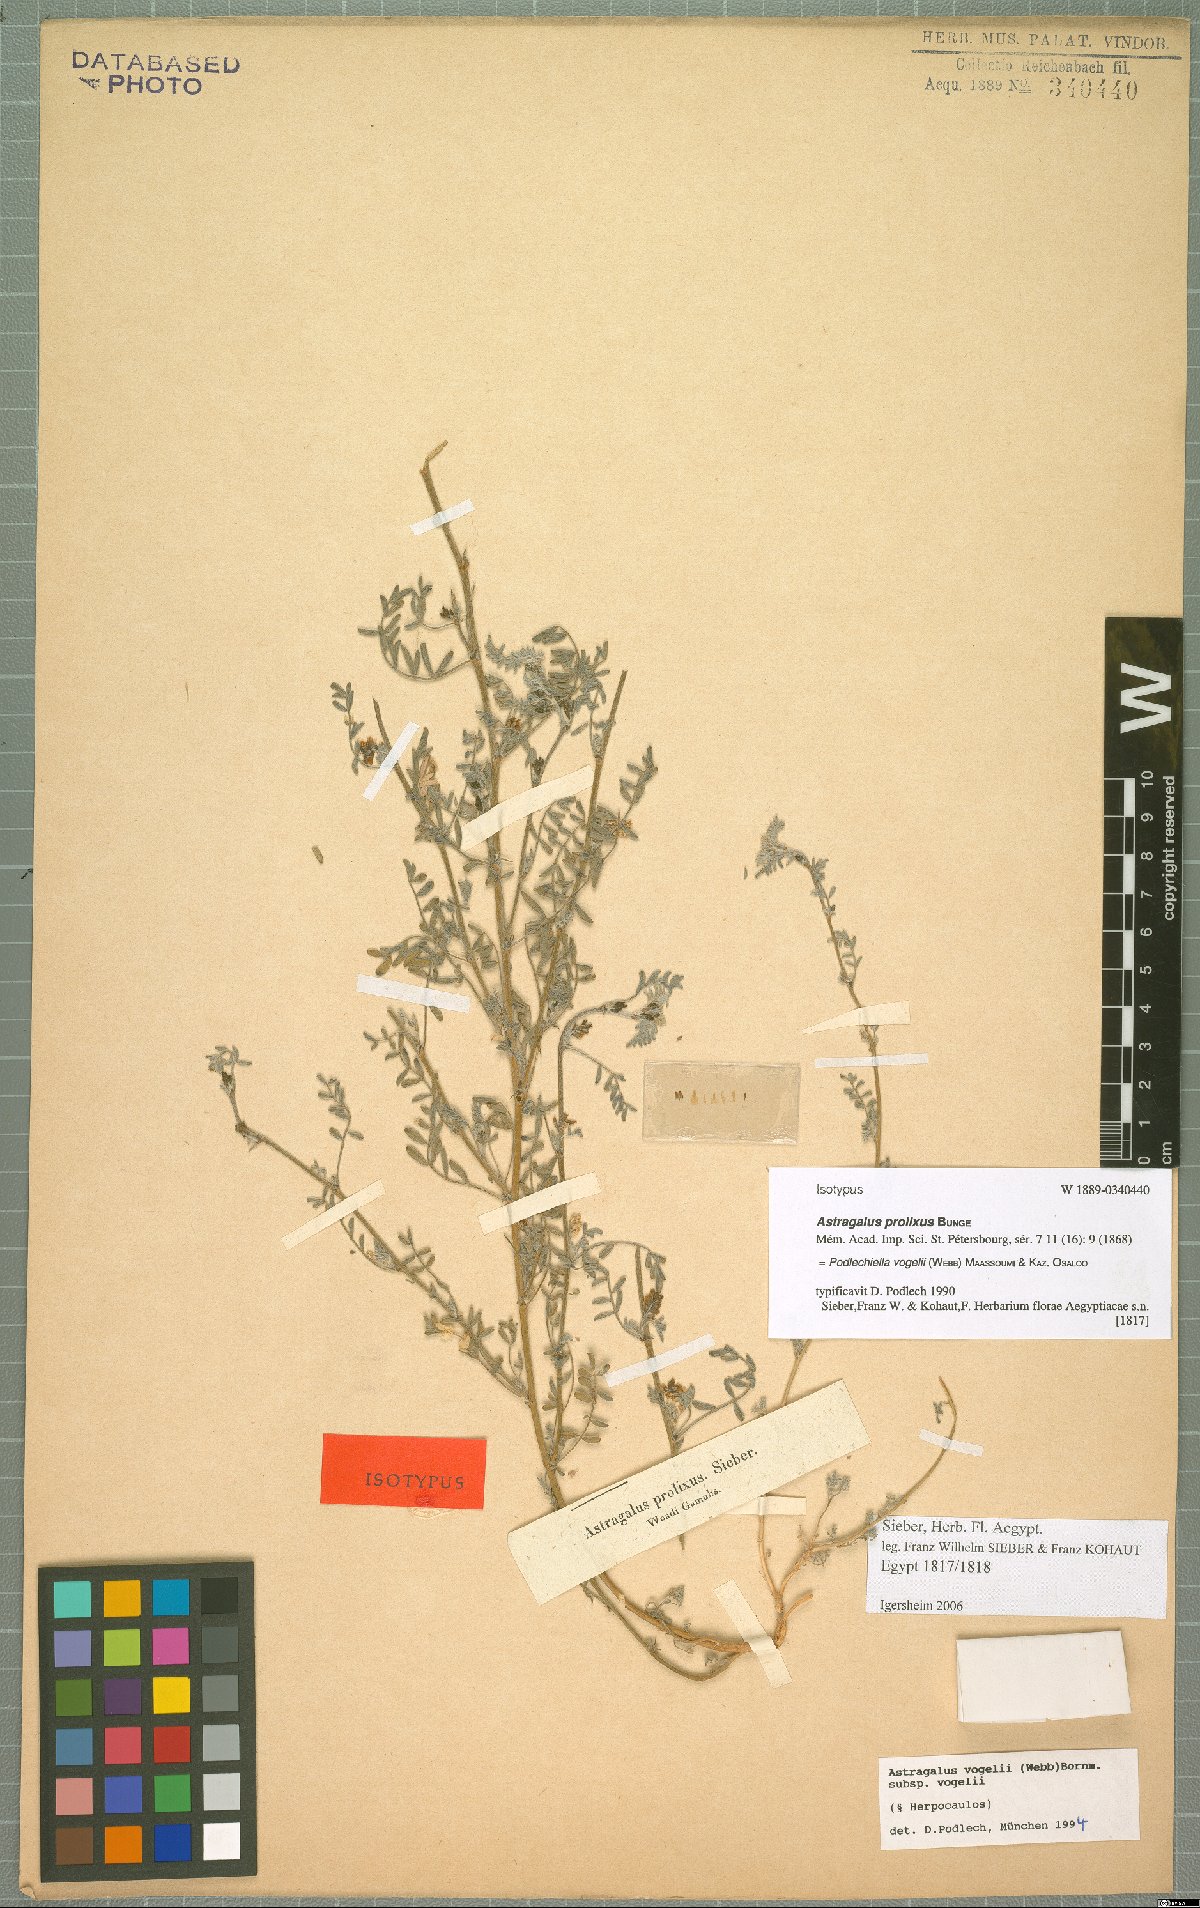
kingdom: Plantae
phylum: Tracheophyta
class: Magnoliopsida
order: Fabales
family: Fabaceae
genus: Astragalus
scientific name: Astragalus vogelii
